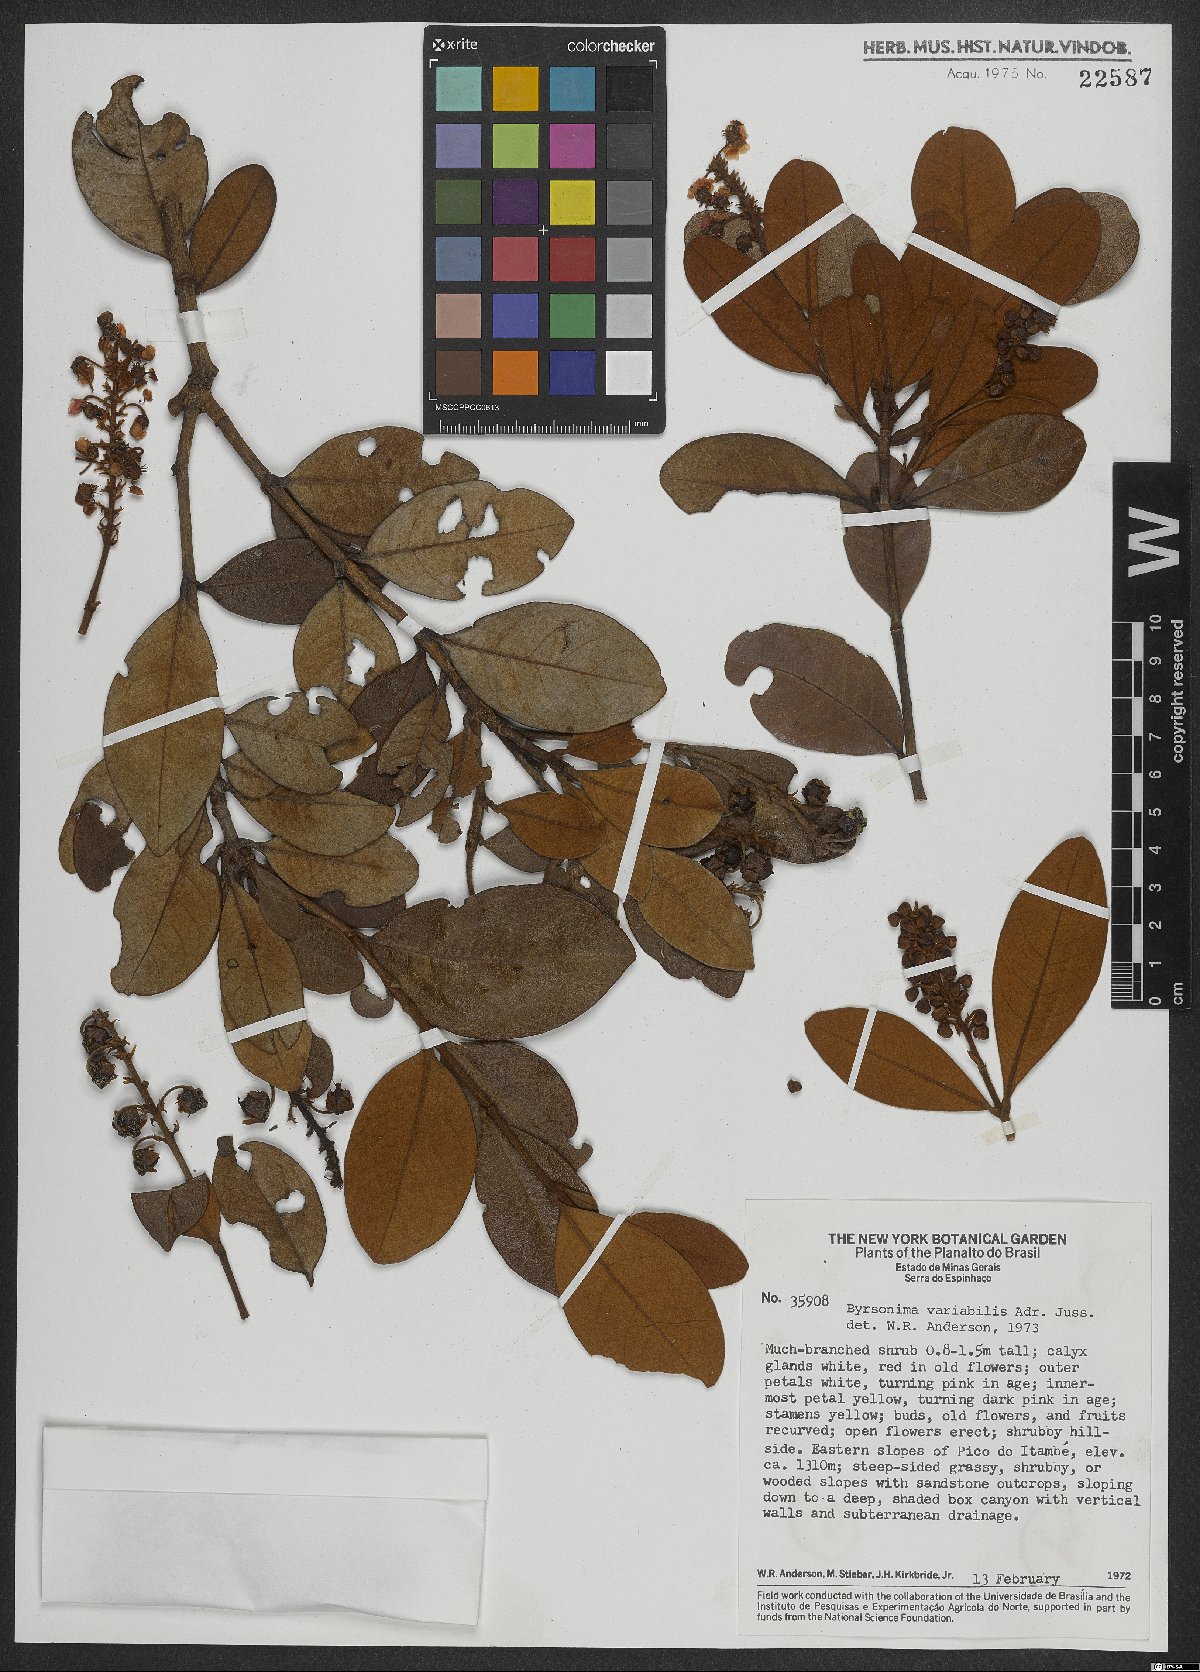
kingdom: Plantae
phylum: Tracheophyta
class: Magnoliopsida
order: Malpighiales
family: Malpighiaceae
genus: Byrsonima
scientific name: Byrsonima variabilis
